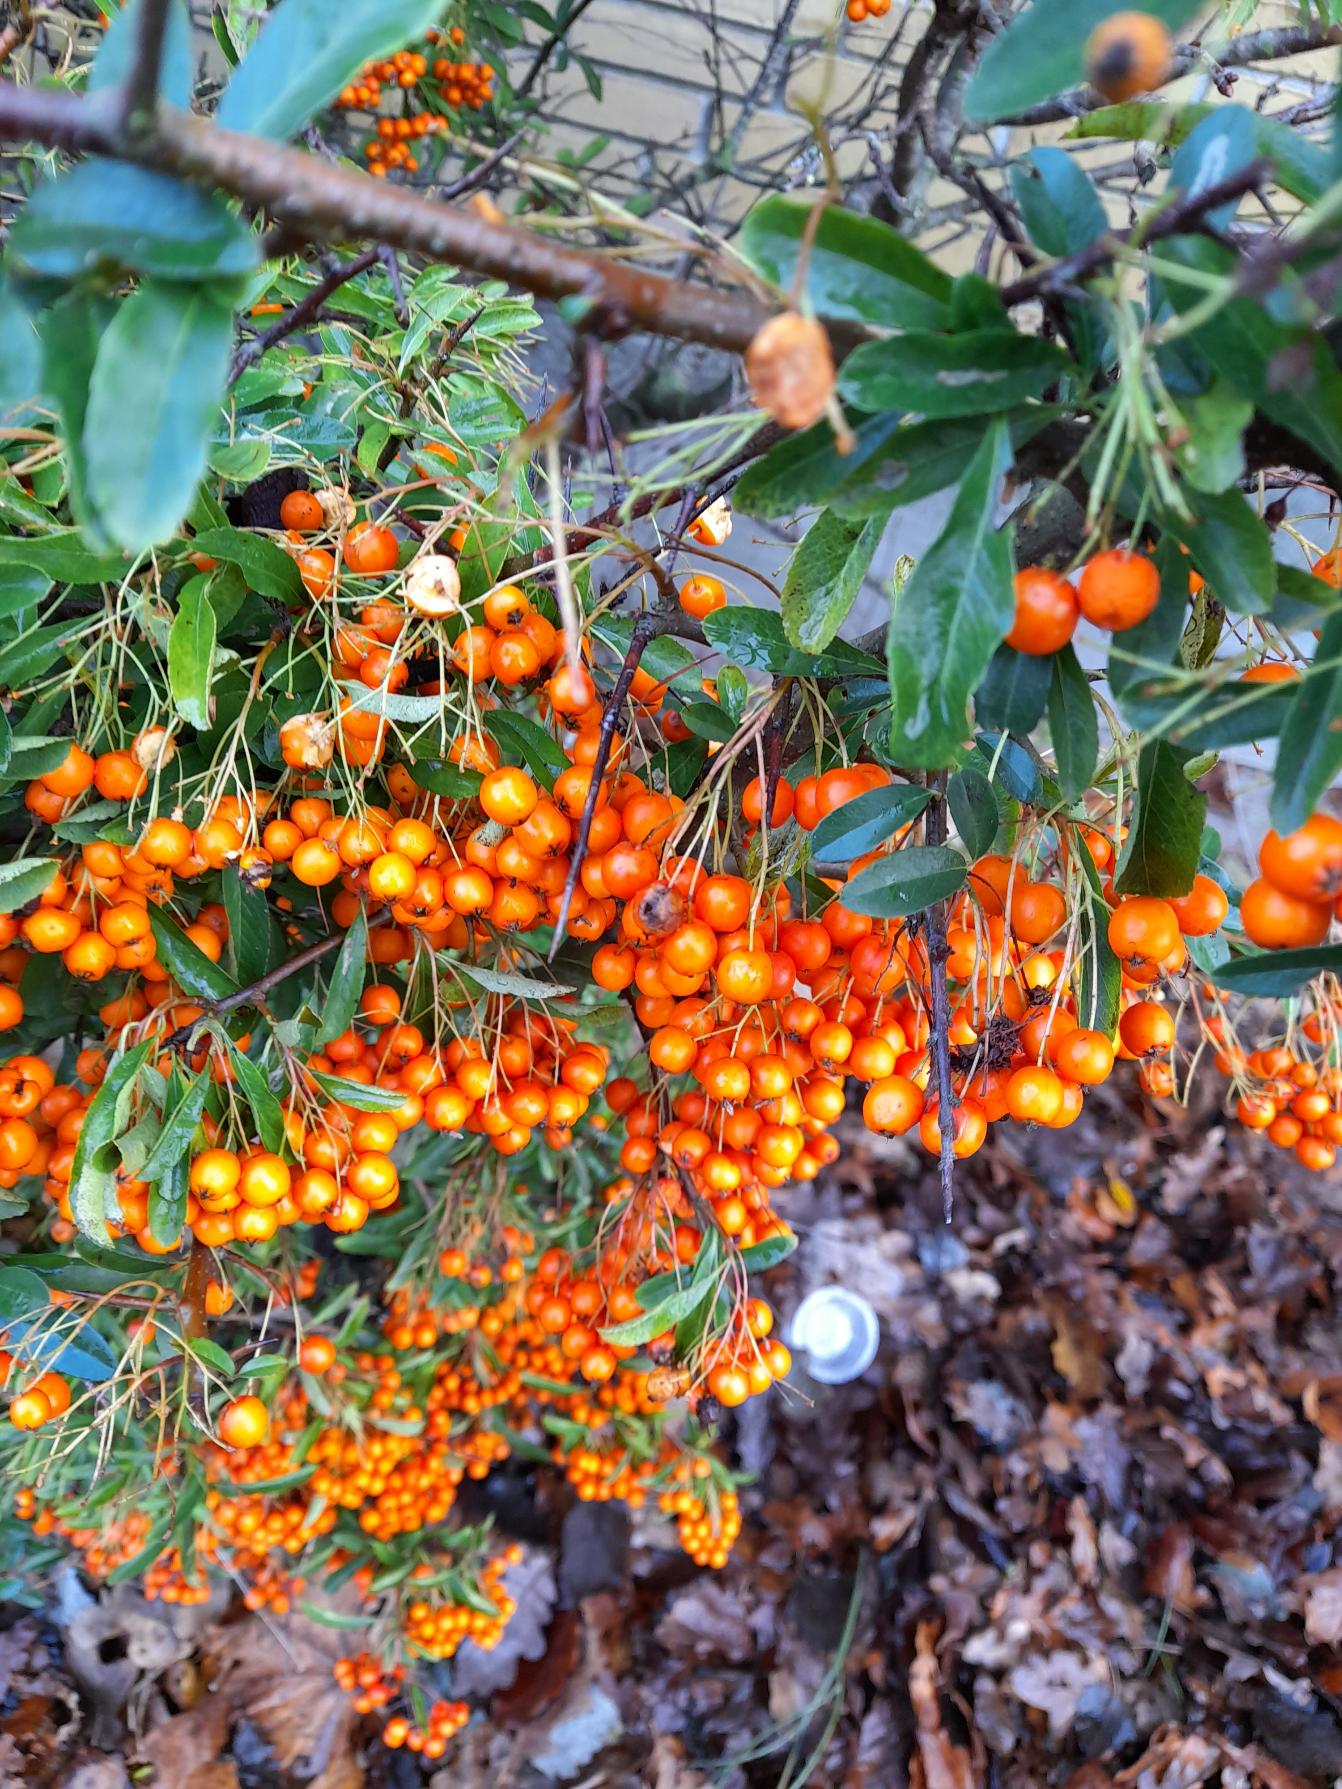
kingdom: Plantae
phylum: Tracheophyta
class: Magnoliopsida
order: Rosales
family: Rosaceae
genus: Pyracantha
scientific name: Pyracantha crenulata
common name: Orangegul ildtorn
